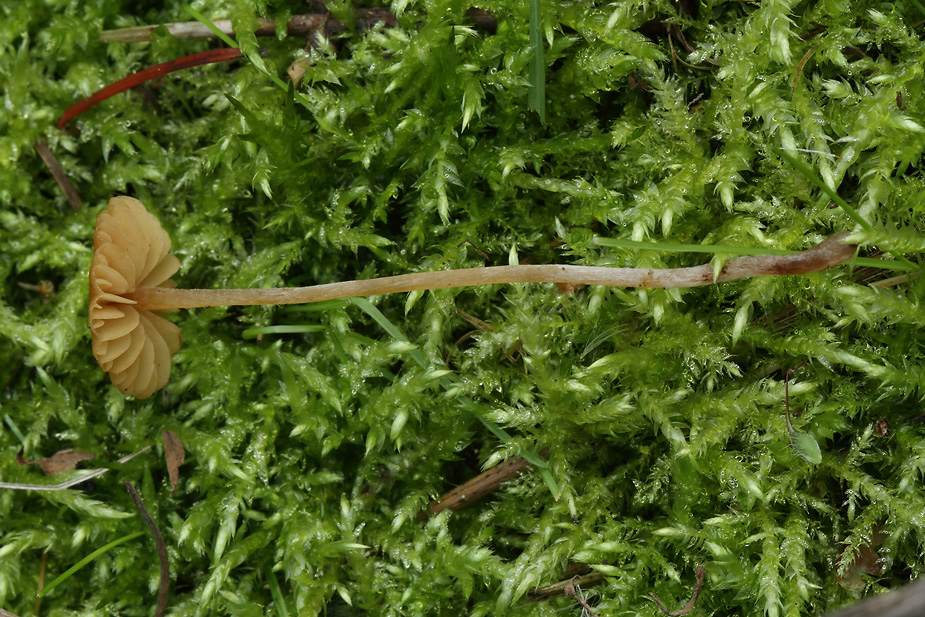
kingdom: Fungi
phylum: Basidiomycota
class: Agaricomycetes
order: Agaricales
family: Hymenogastraceae
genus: Galerina
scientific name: Galerina clavata
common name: kær-hjelmhat
